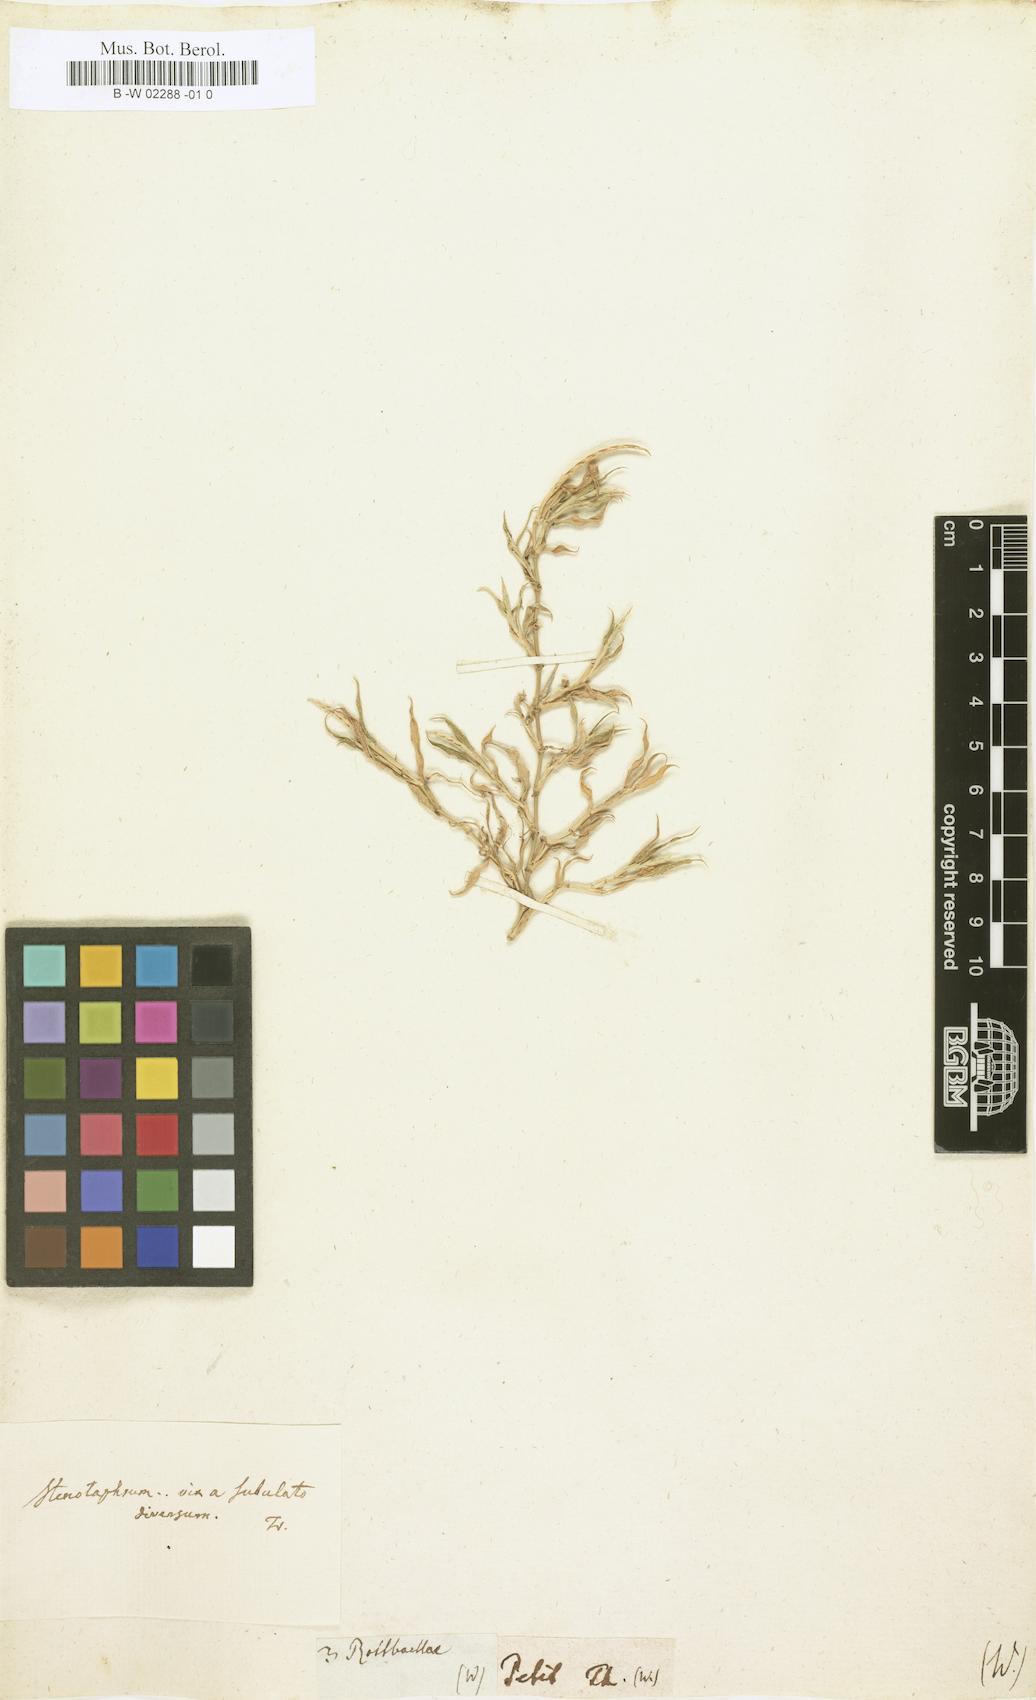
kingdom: Plantae
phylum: Tracheophyta
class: Liliopsida
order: Poales
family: Poaceae
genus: Rottboellia
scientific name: Rottboellia
